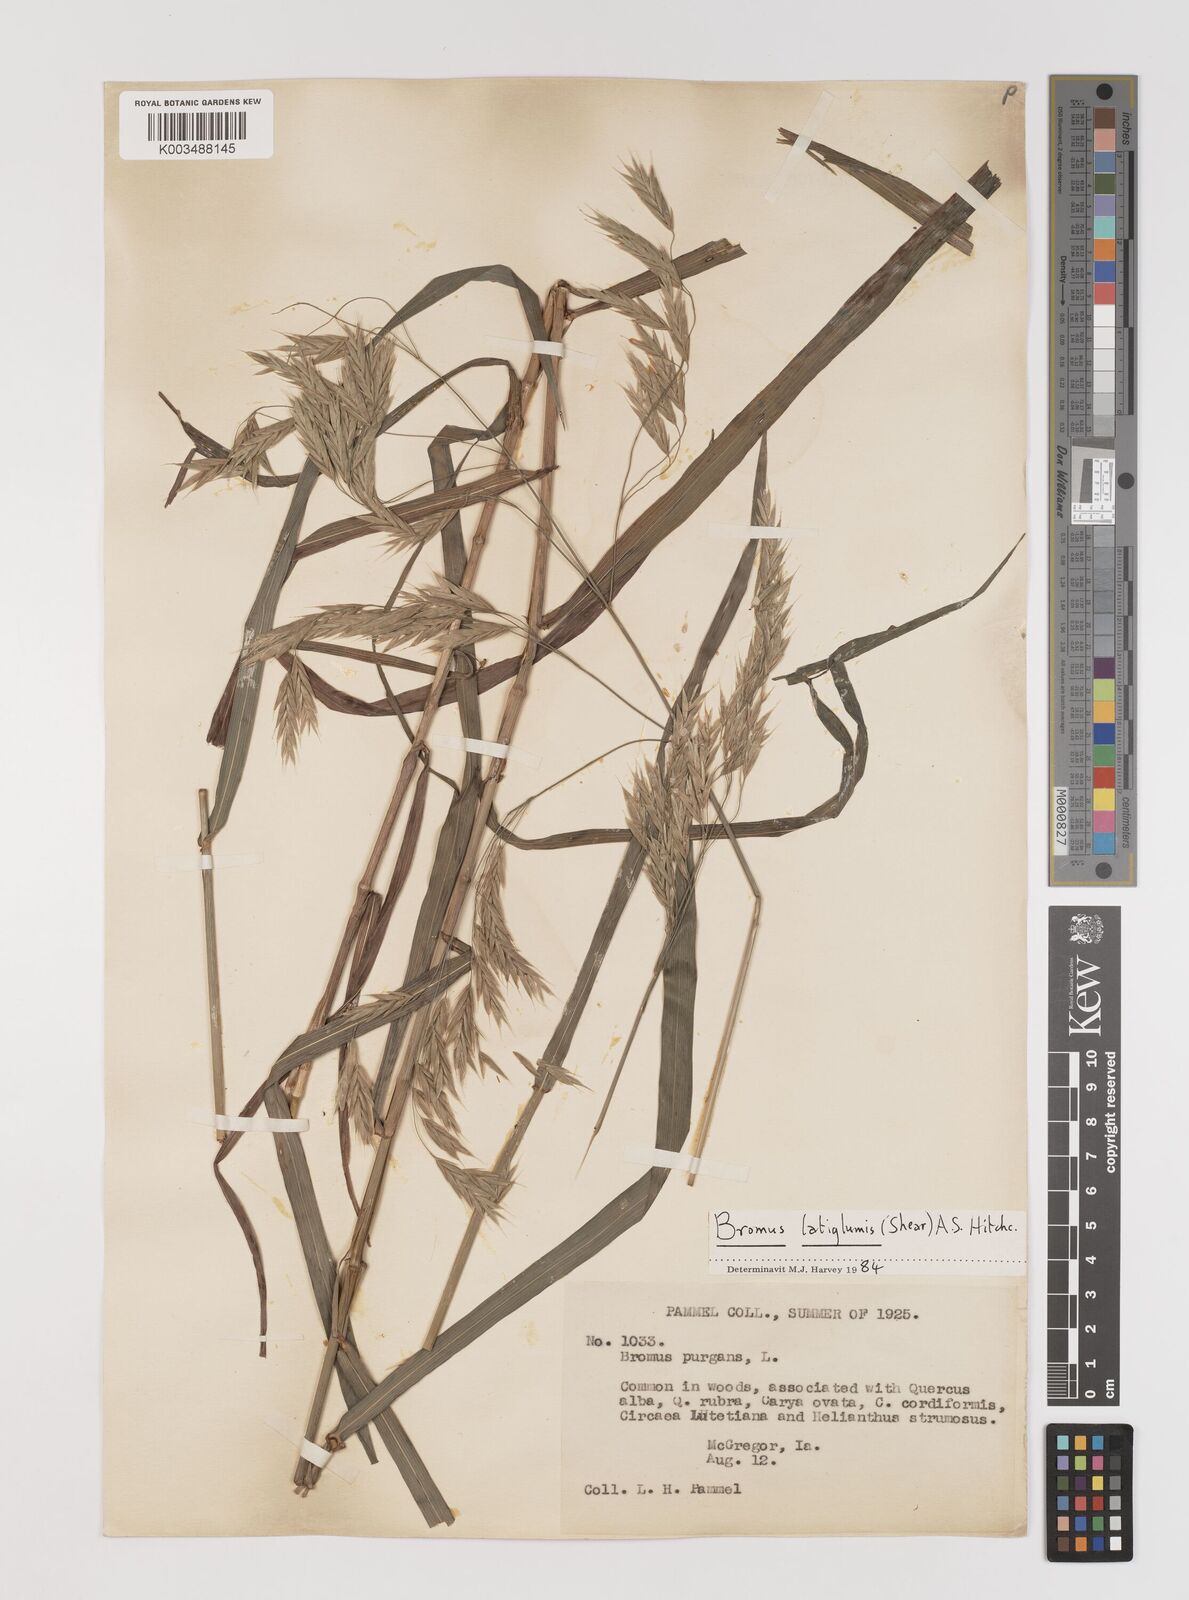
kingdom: Plantae
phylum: Tracheophyta
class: Liliopsida
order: Poales
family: Poaceae
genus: Bromus
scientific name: Bromus latiglumis
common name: Broad-glumed brome
